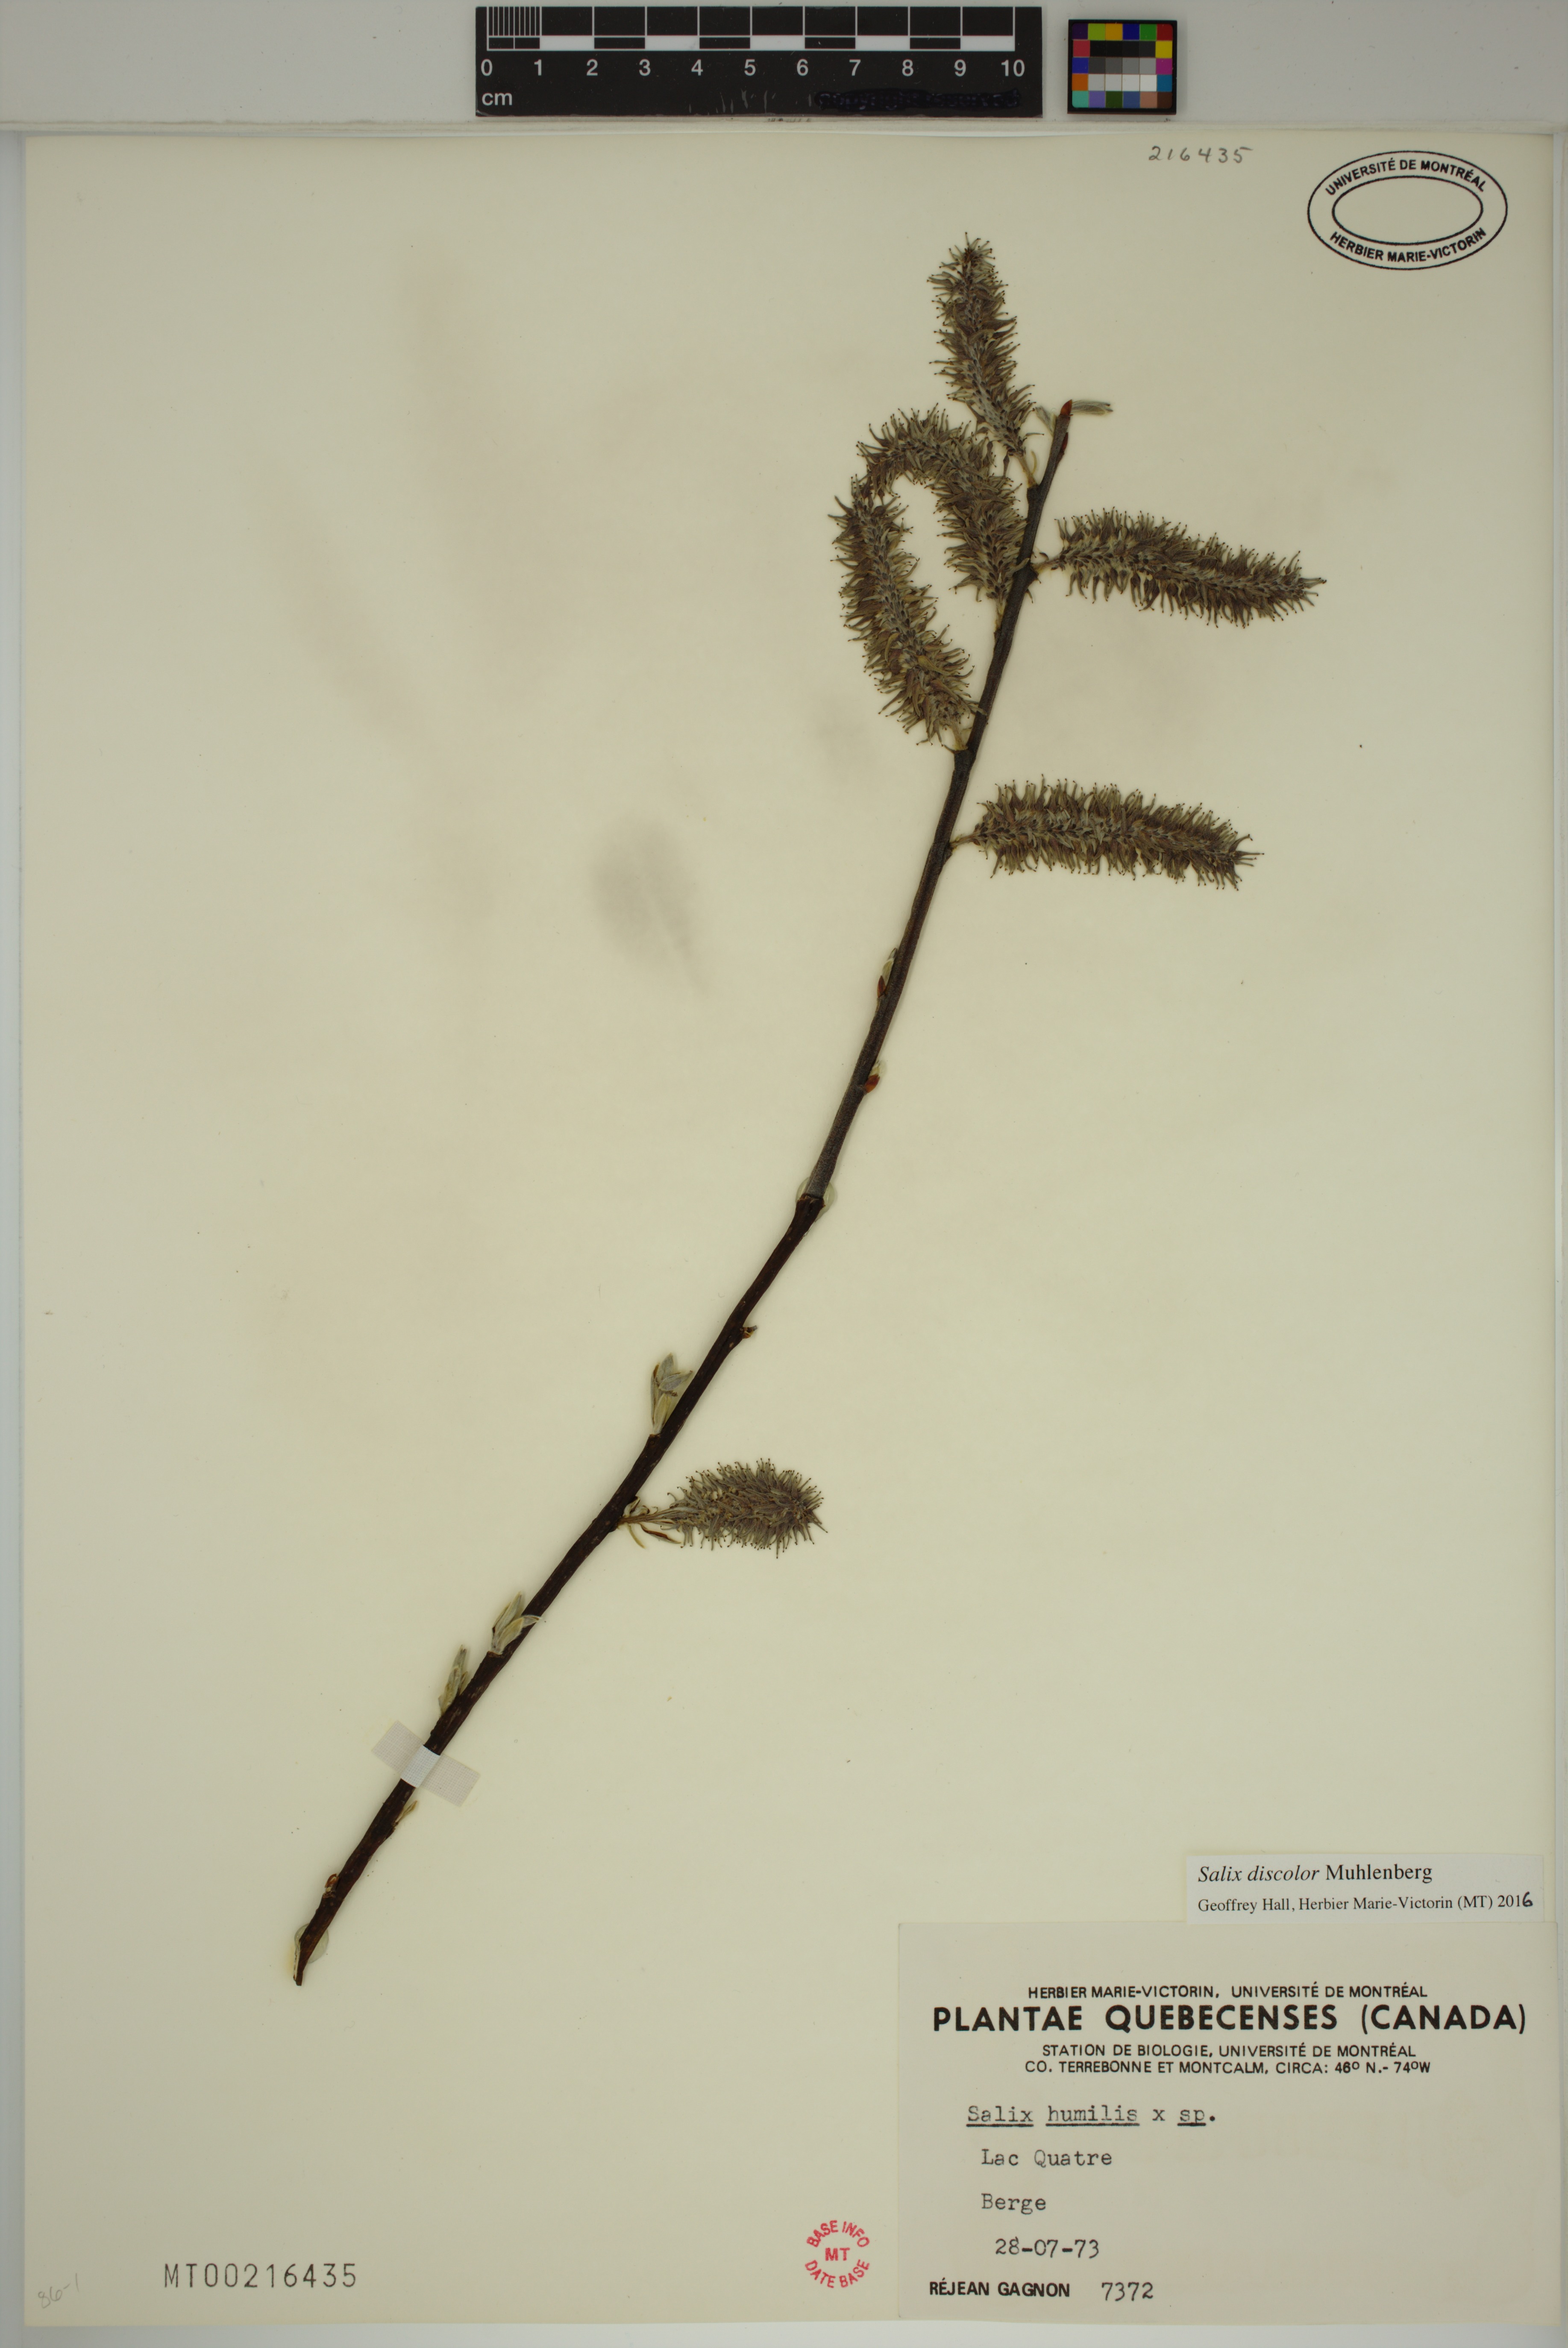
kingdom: Plantae
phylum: Tracheophyta
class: Magnoliopsida
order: Malpighiales
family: Salicaceae
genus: Salix
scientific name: Salix discolor
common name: Glaucous willow
